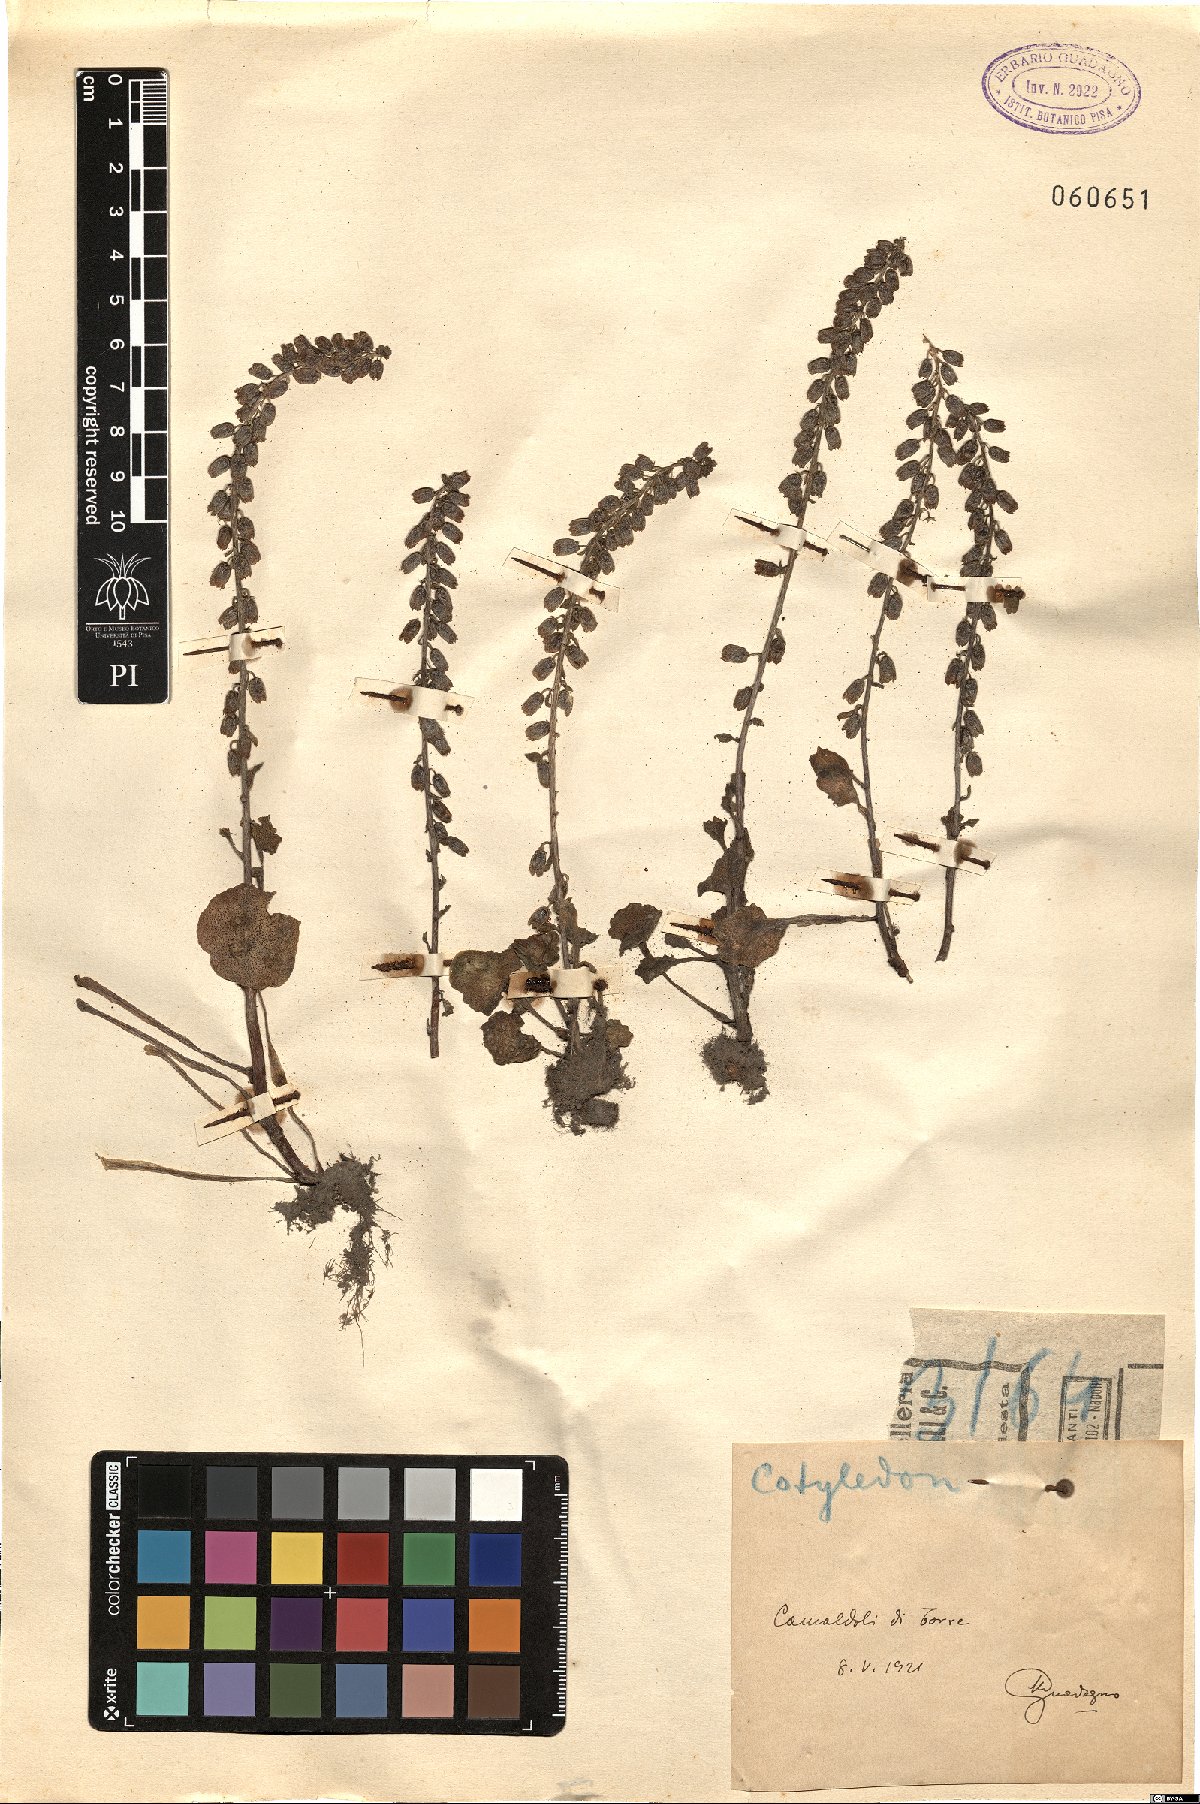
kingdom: Plantae
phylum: Tracheophyta
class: Magnoliopsida
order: Saxifragales
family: Crassulaceae
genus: Cotyledon
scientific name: Cotyledon
